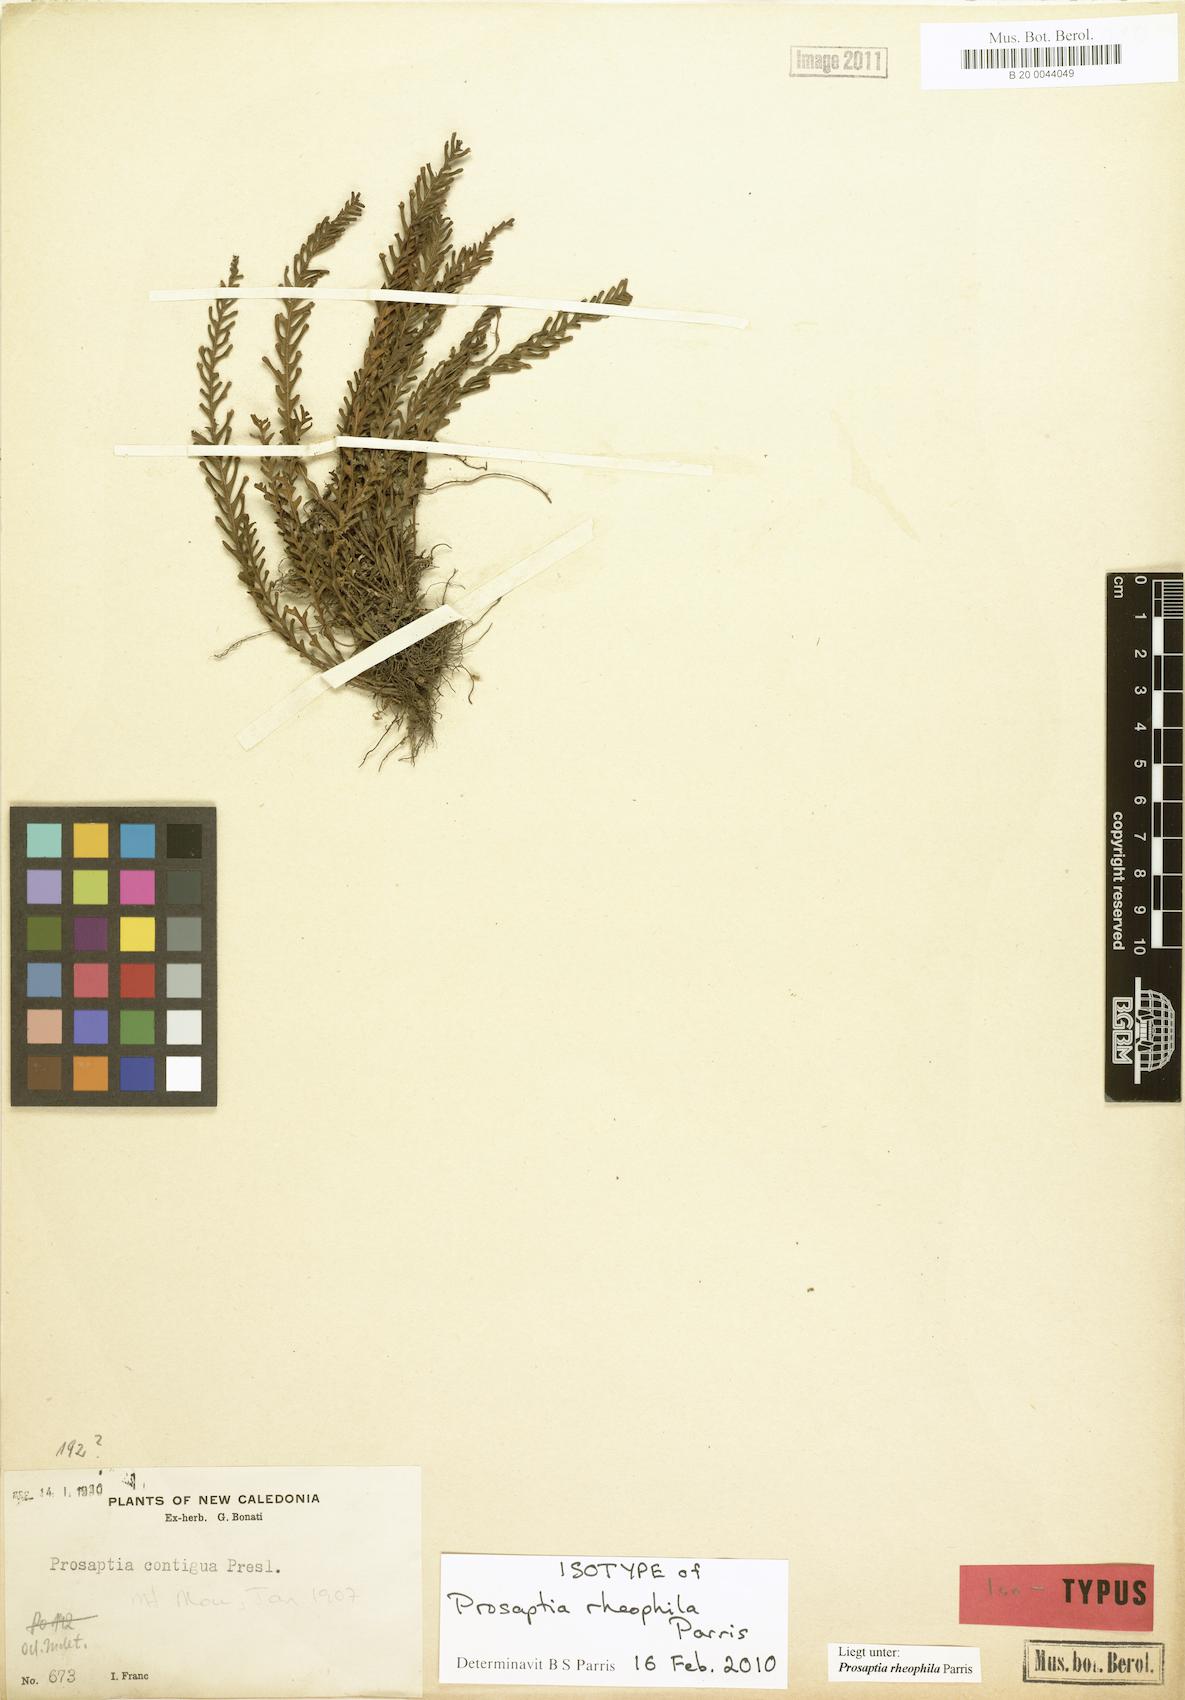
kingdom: Plantae
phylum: Tracheophyta
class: Polypodiopsida
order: Polypodiales
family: Polypodiaceae
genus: Prosaptia
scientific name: Prosaptia
